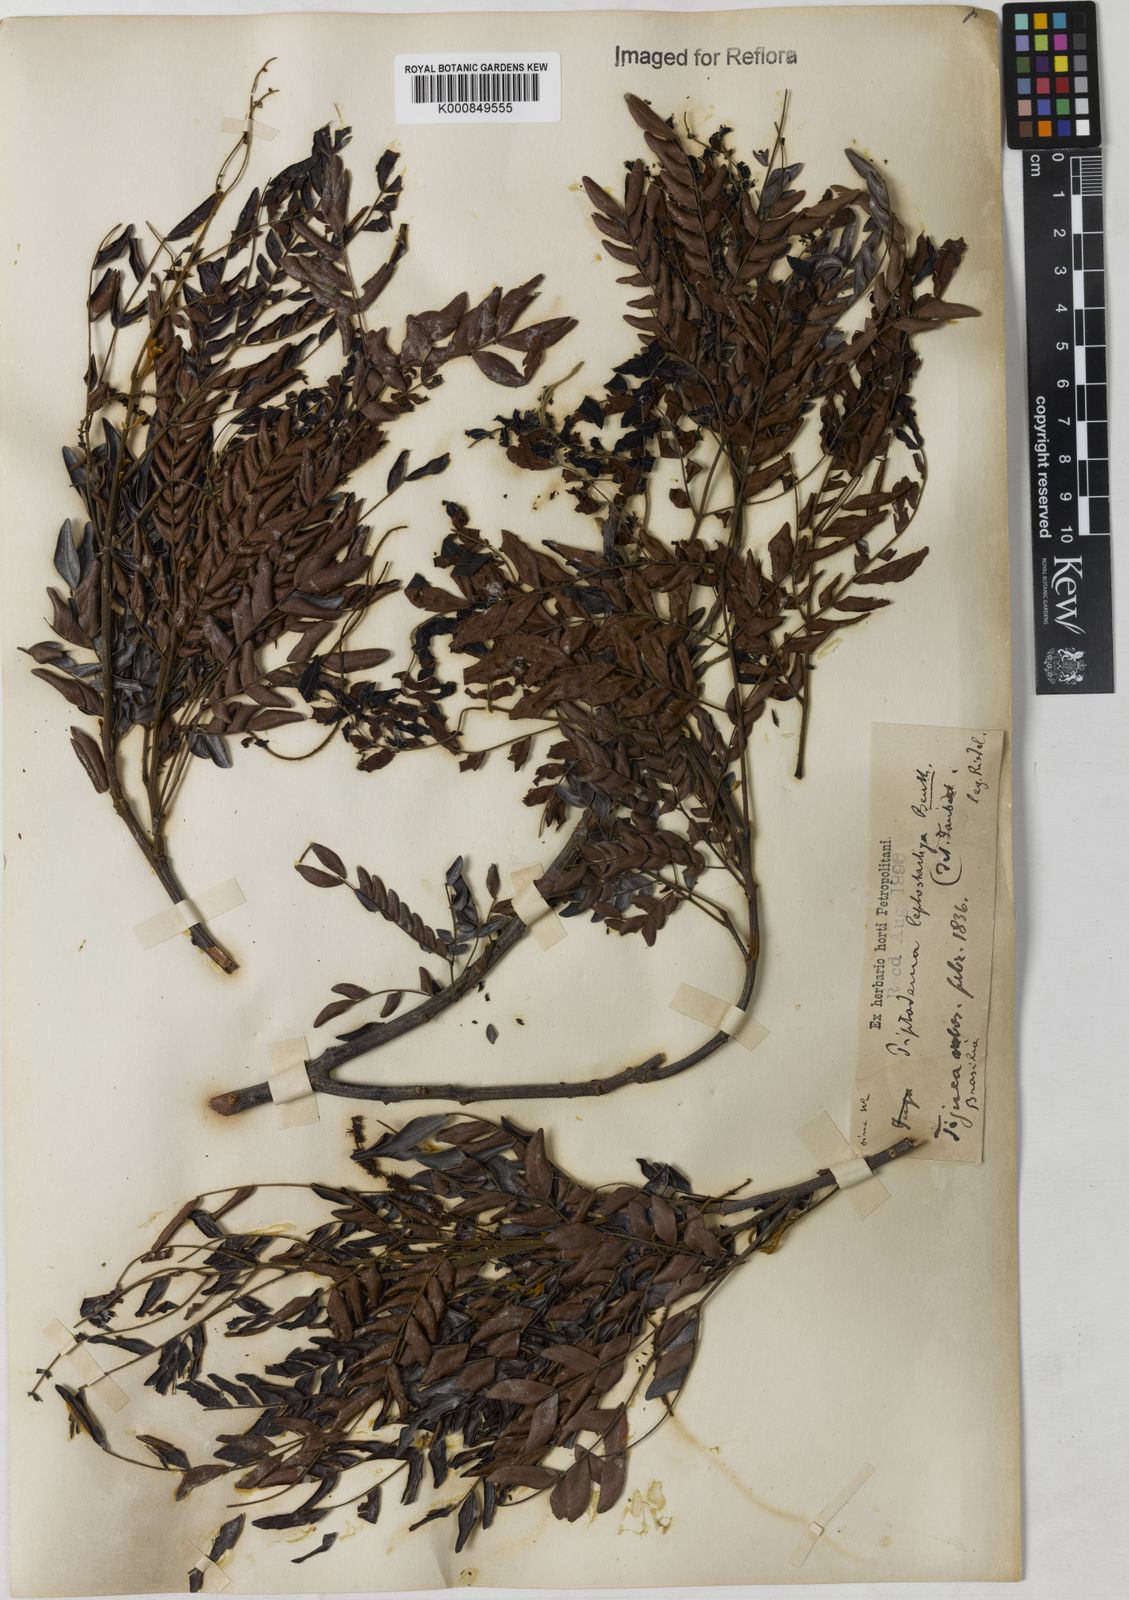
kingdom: Plantae
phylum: Tracheophyta
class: Magnoliopsida
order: Fabales
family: Fabaceae
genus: Pseudopiptadenia
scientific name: Pseudopiptadenia leptostachya
